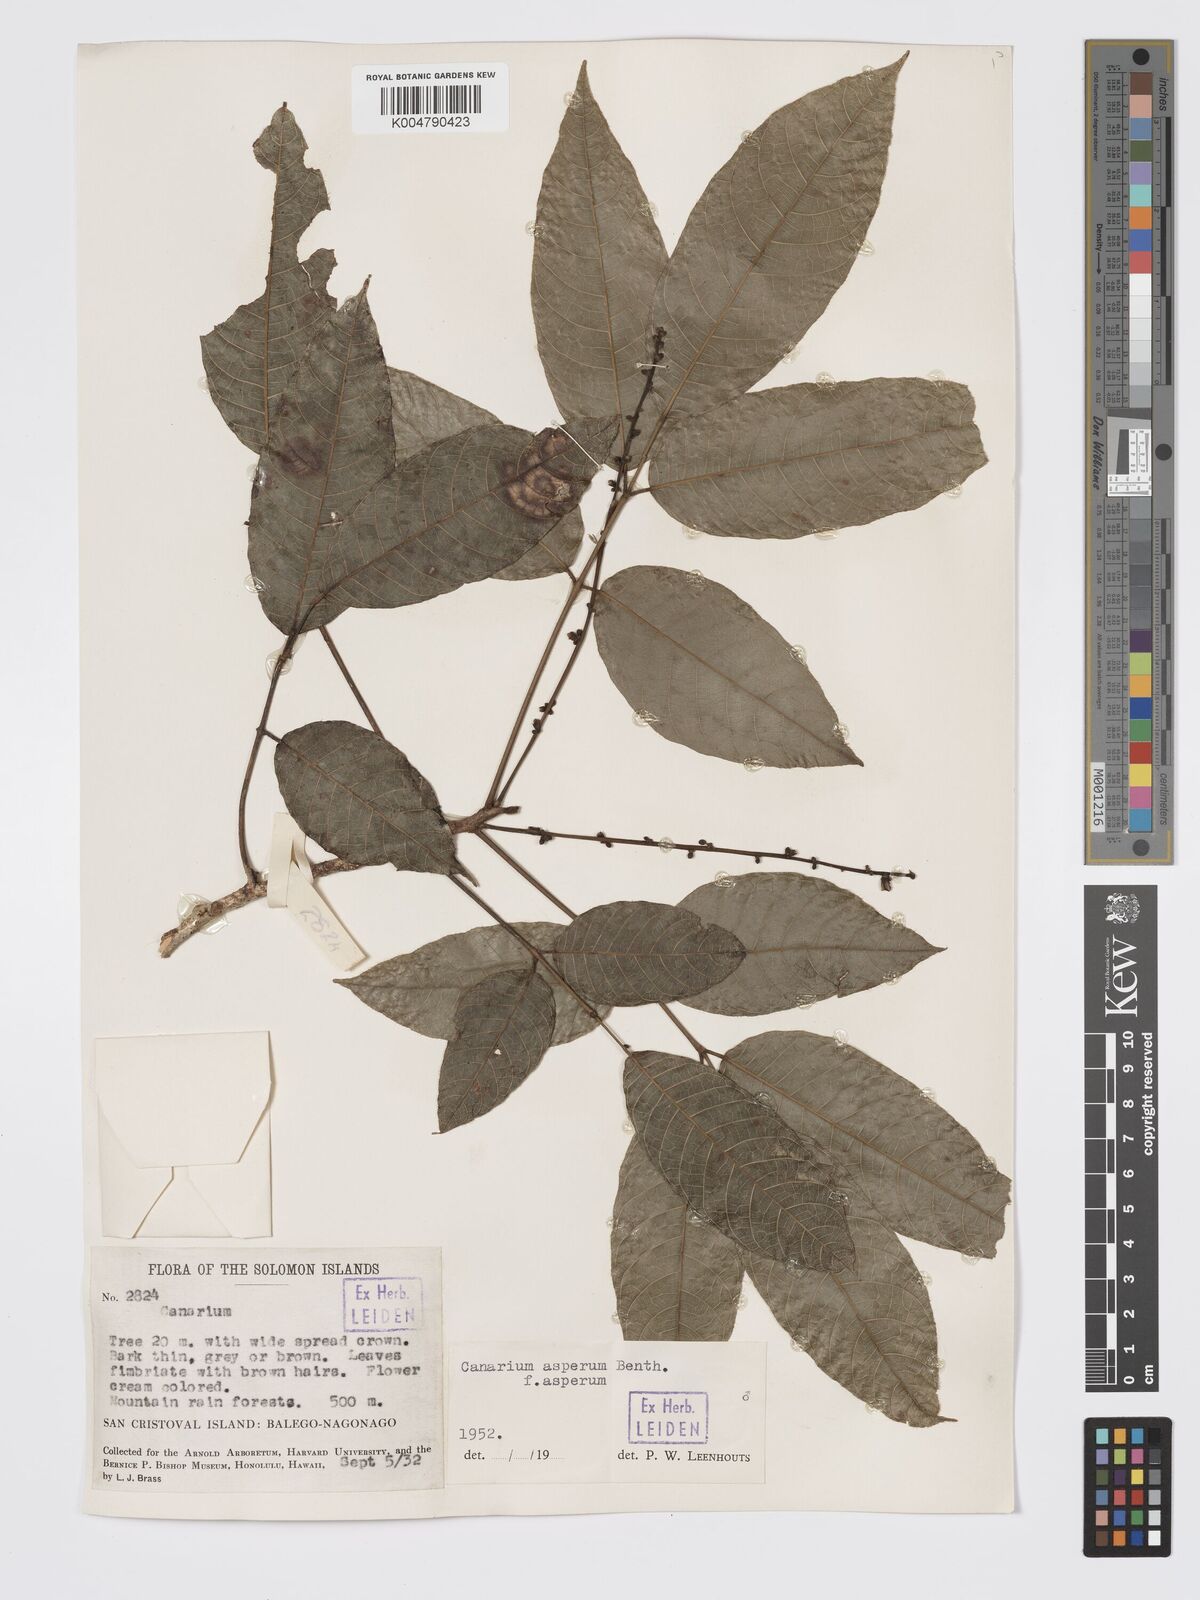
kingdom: Plantae
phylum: Tracheophyta
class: Magnoliopsida
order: Sapindales
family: Burseraceae
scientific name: Burseraceae
